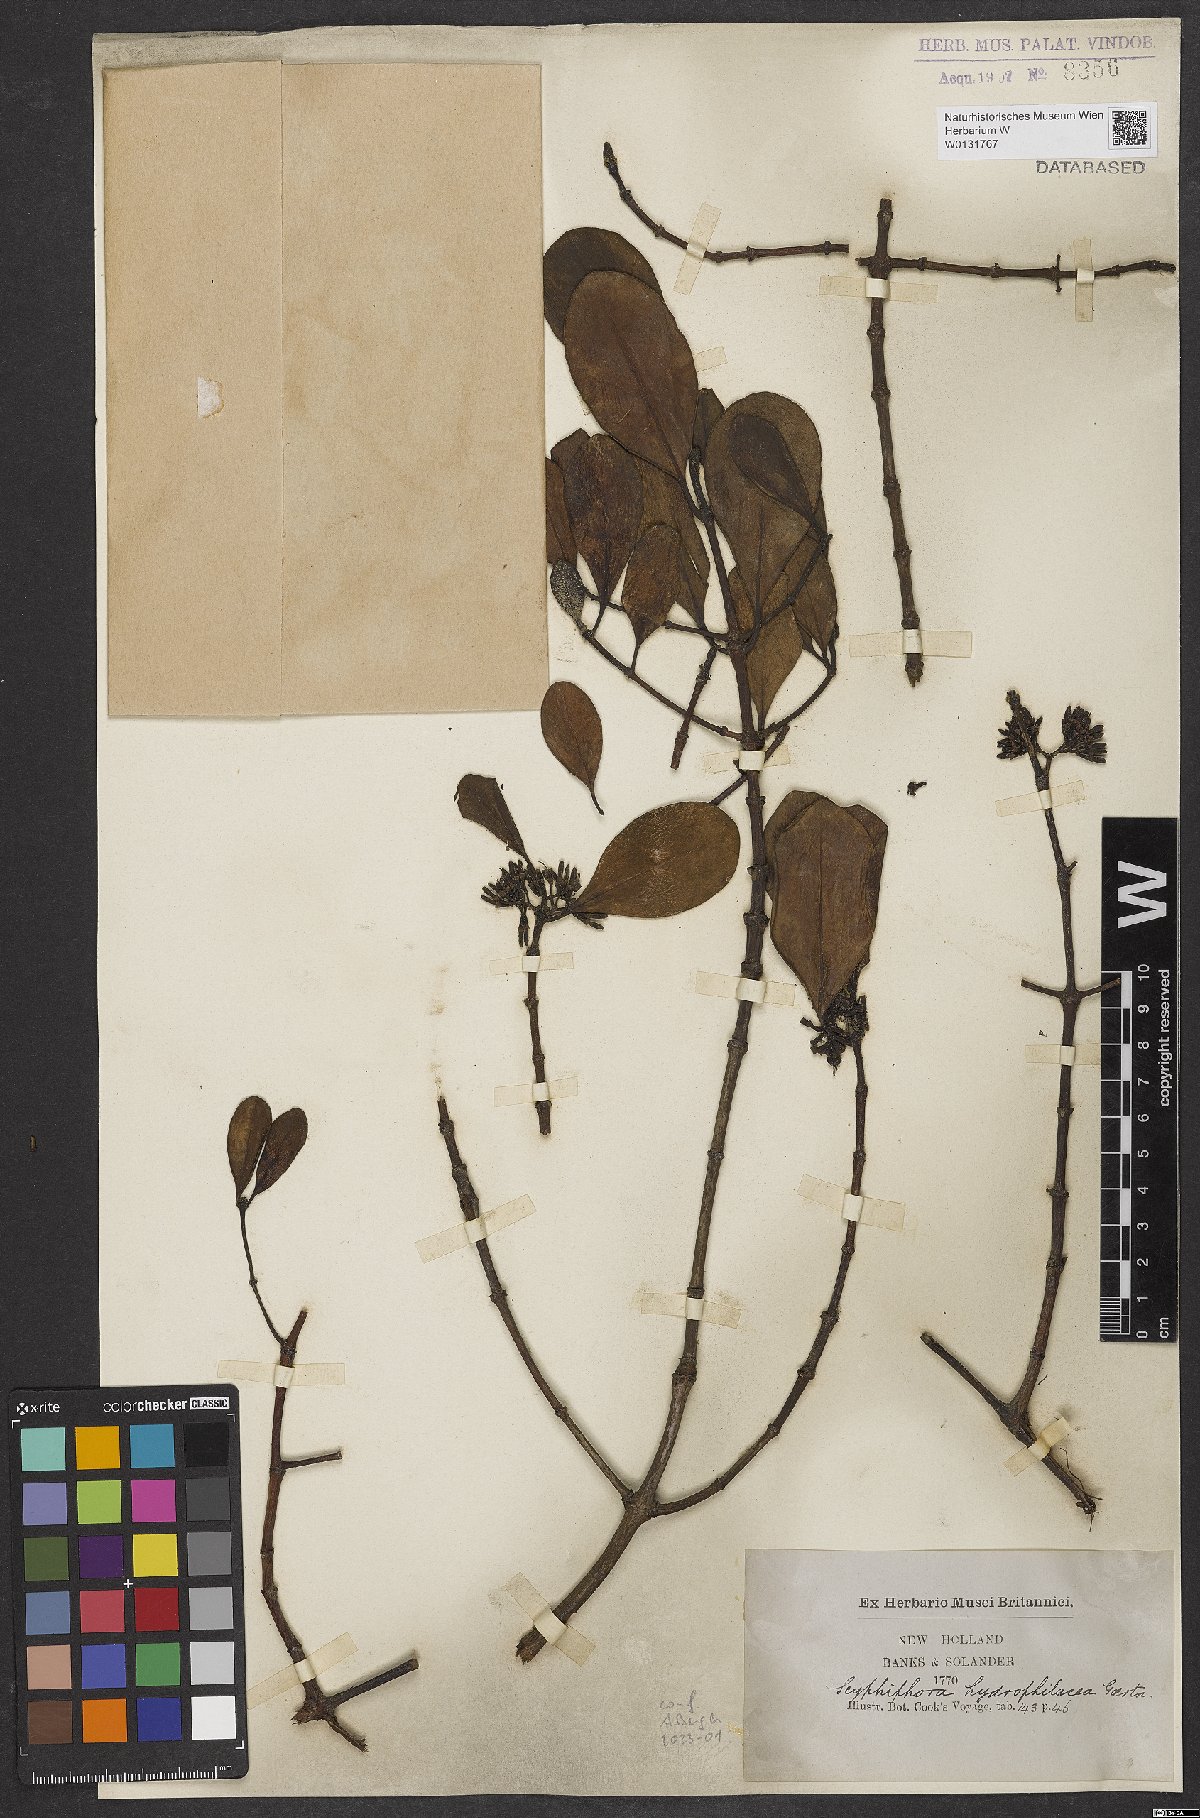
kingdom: Plantae
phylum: Tracheophyta
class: Magnoliopsida
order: Gentianales
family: Rubiaceae
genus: Scyphiphora
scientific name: Scyphiphora hydrophylacea
